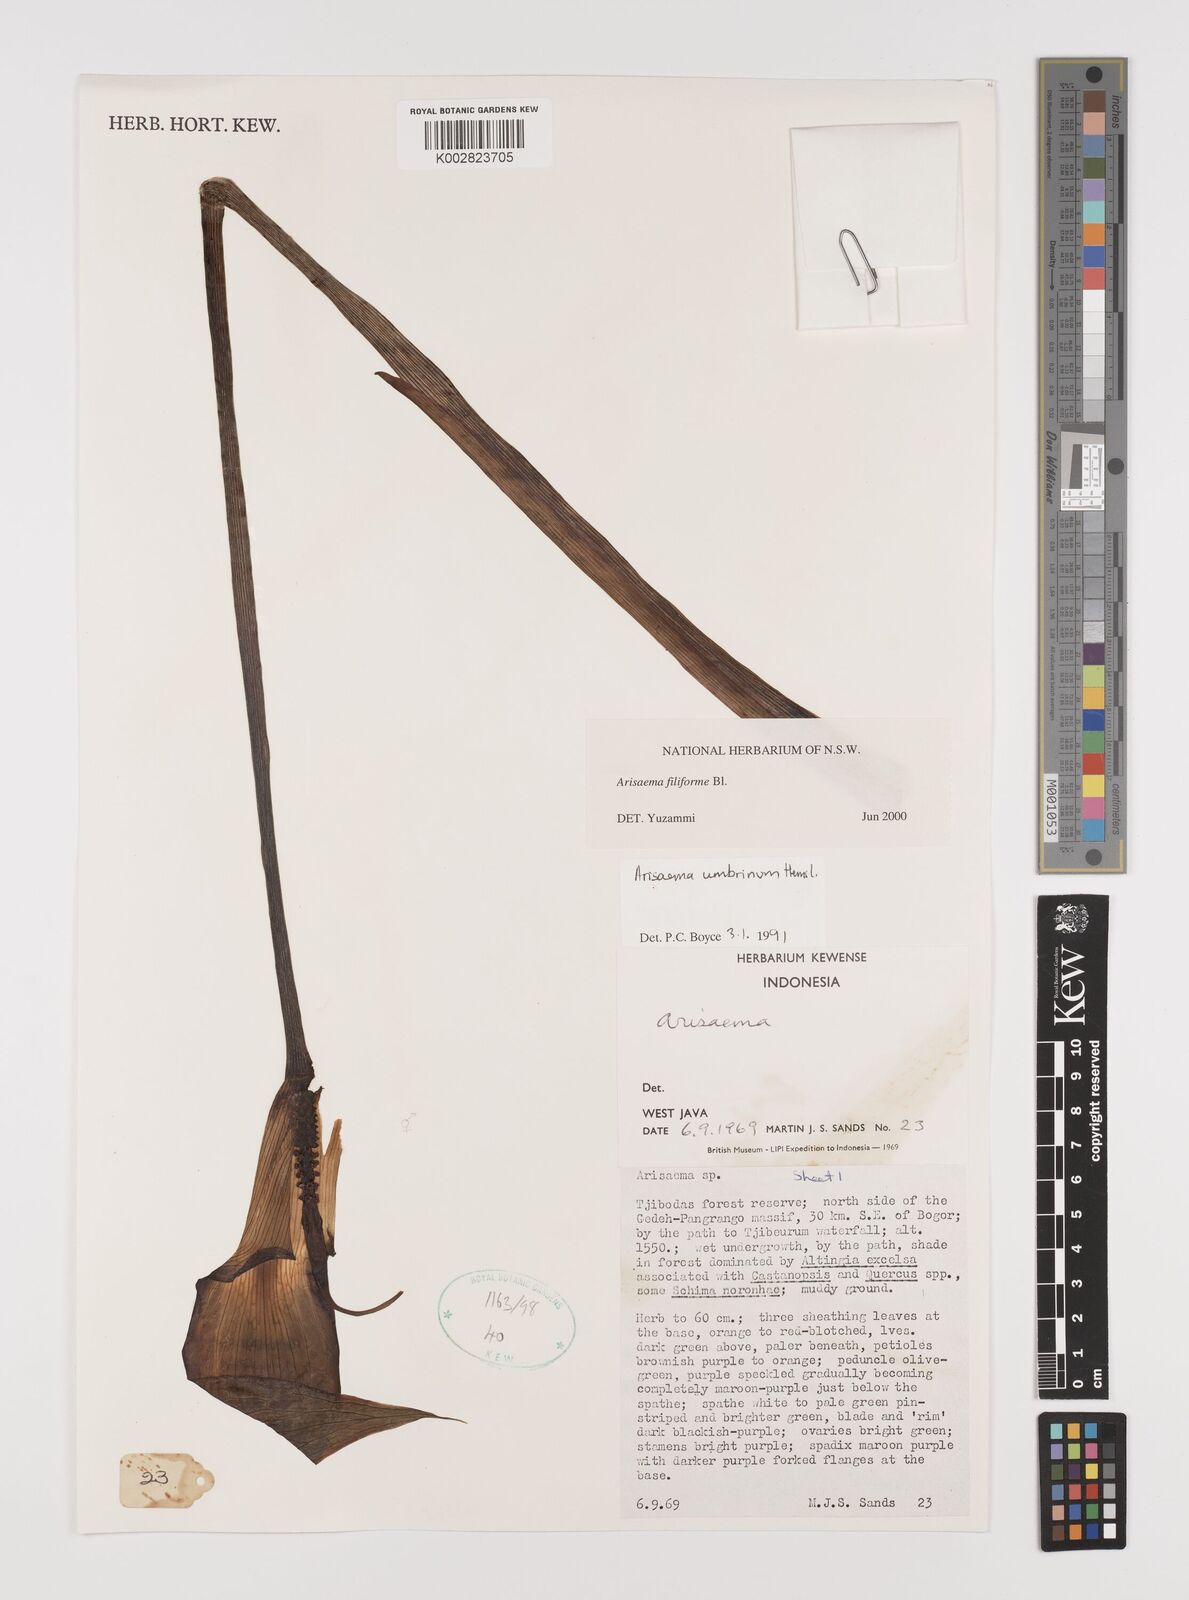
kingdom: Plantae
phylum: Tracheophyta
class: Liliopsida
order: Alismatales
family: Araceae
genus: Arisaema
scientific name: Arisaema filiforme
